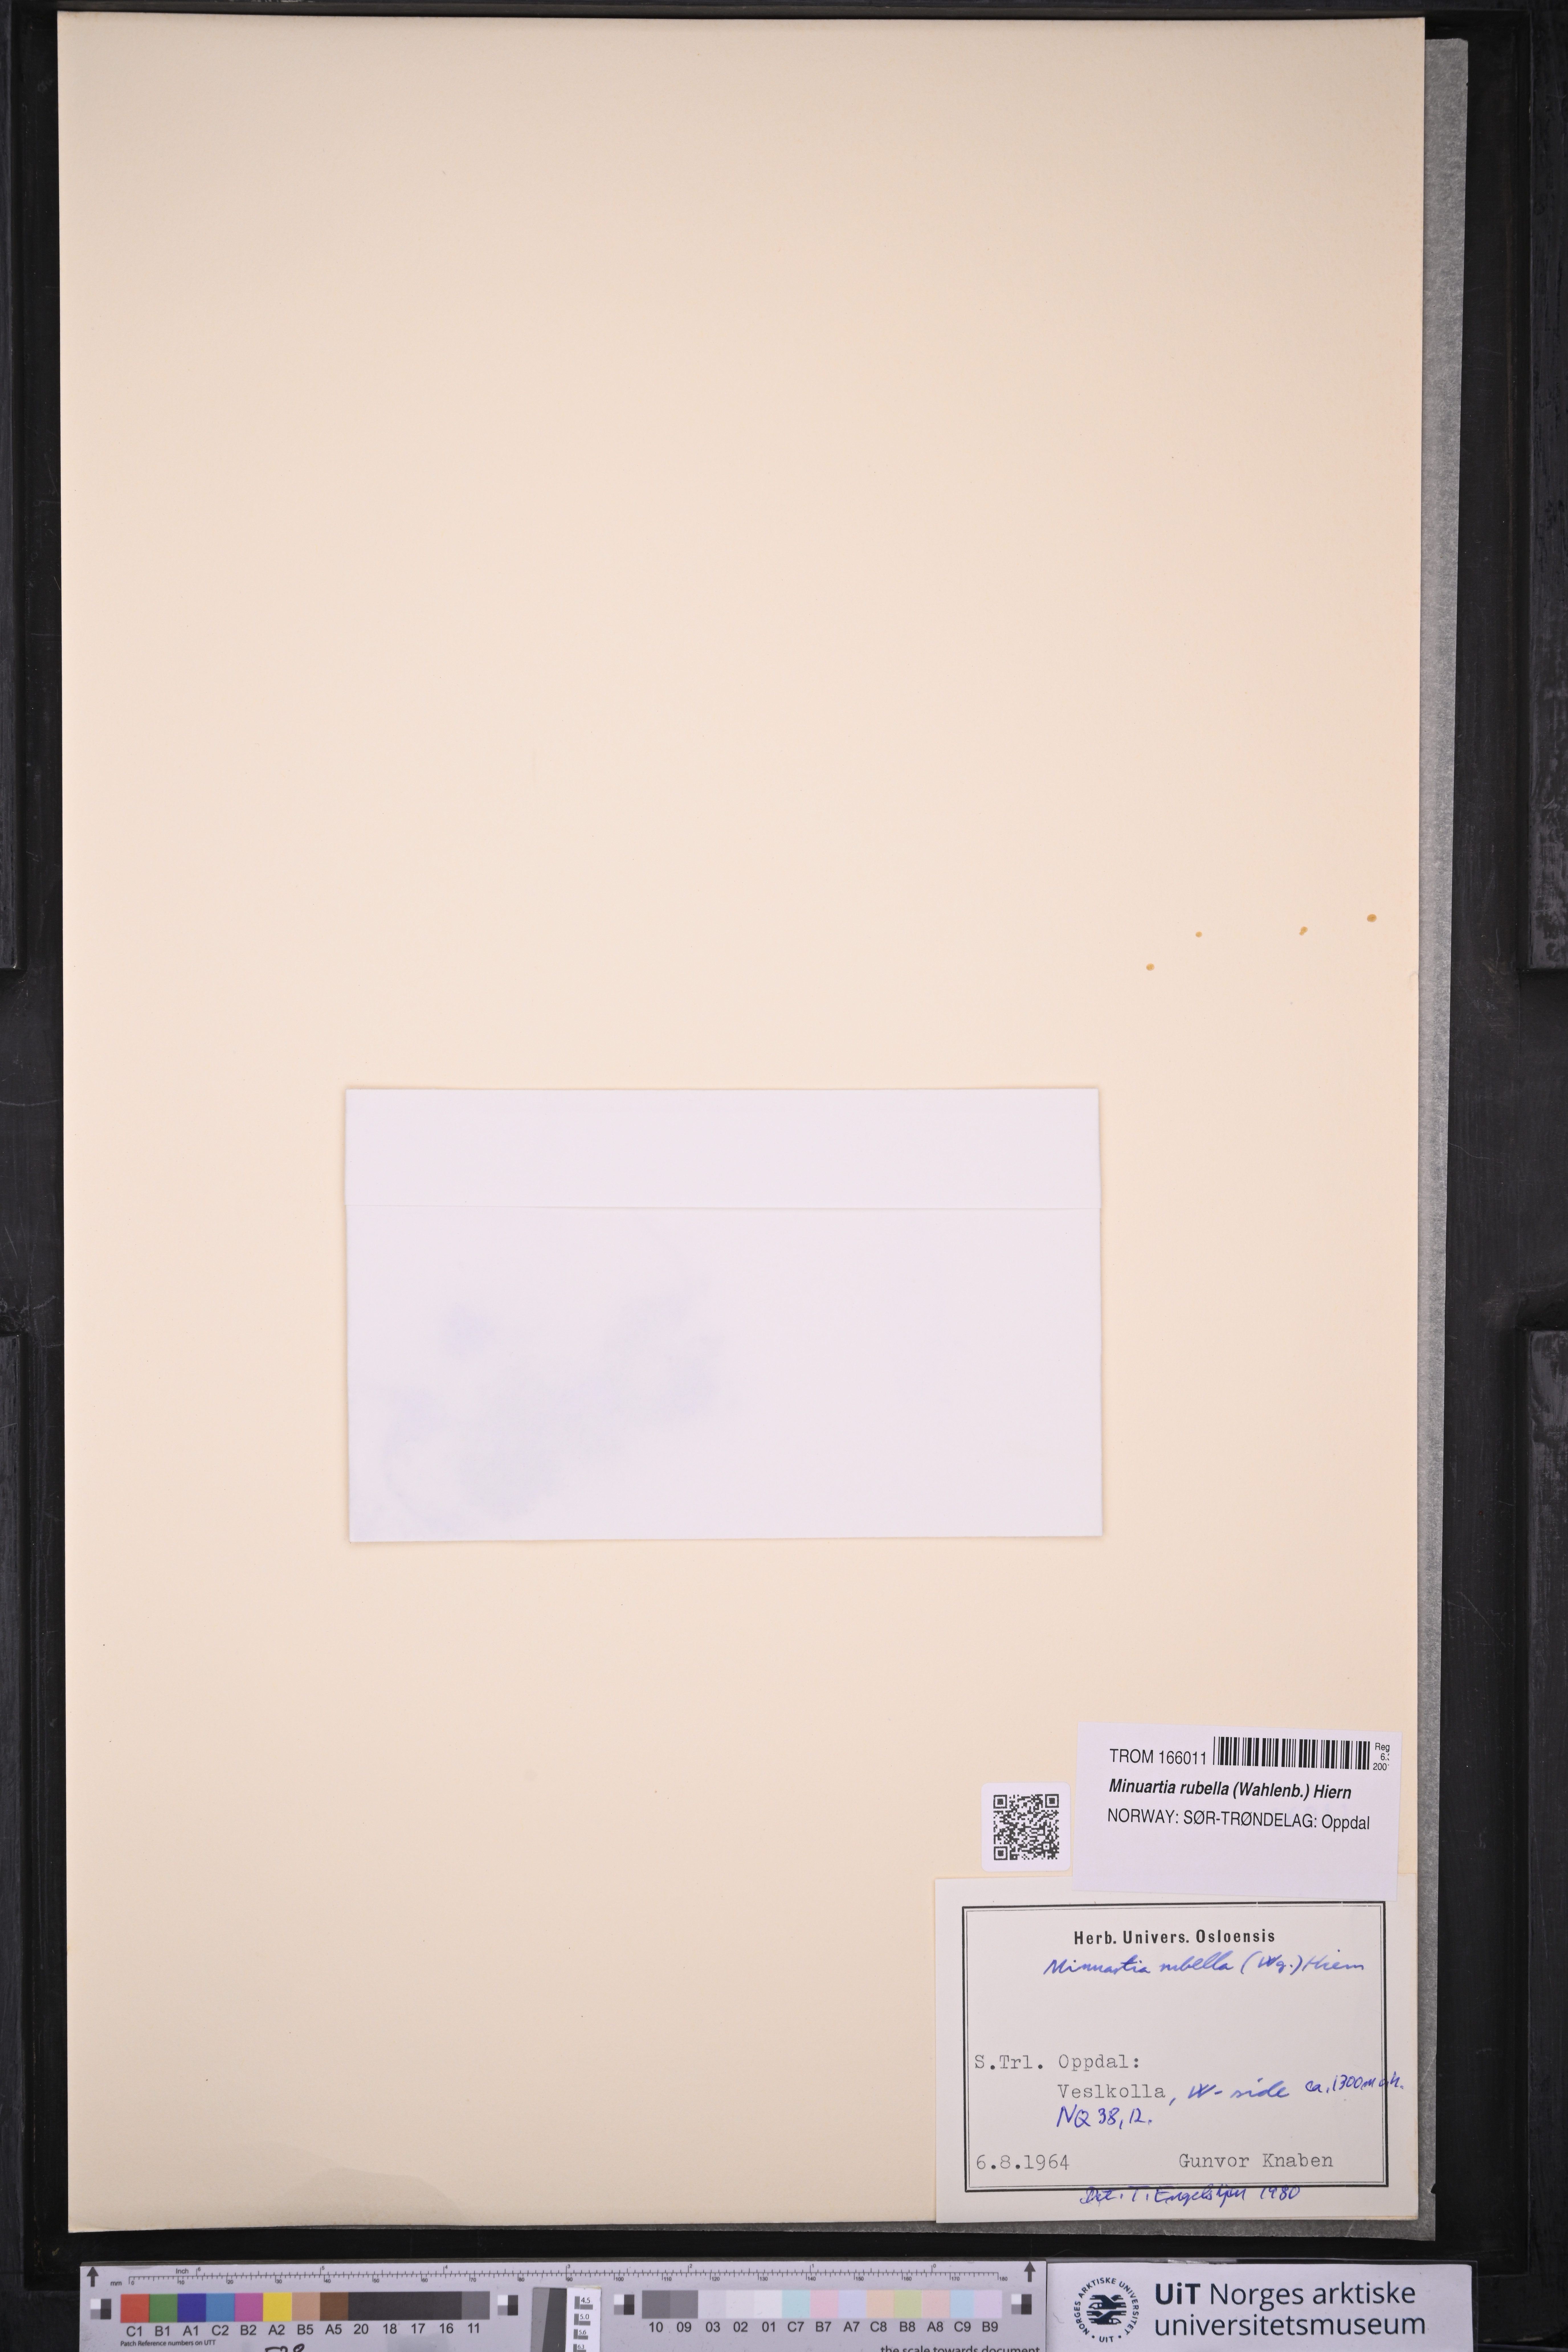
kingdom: Plantae
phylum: Tracheophyta
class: Magnoliopsida
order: Caryophyllales
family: Caryophyllaceae
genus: Sabulina
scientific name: Sabulina rubella
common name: Beautiful sandwort
